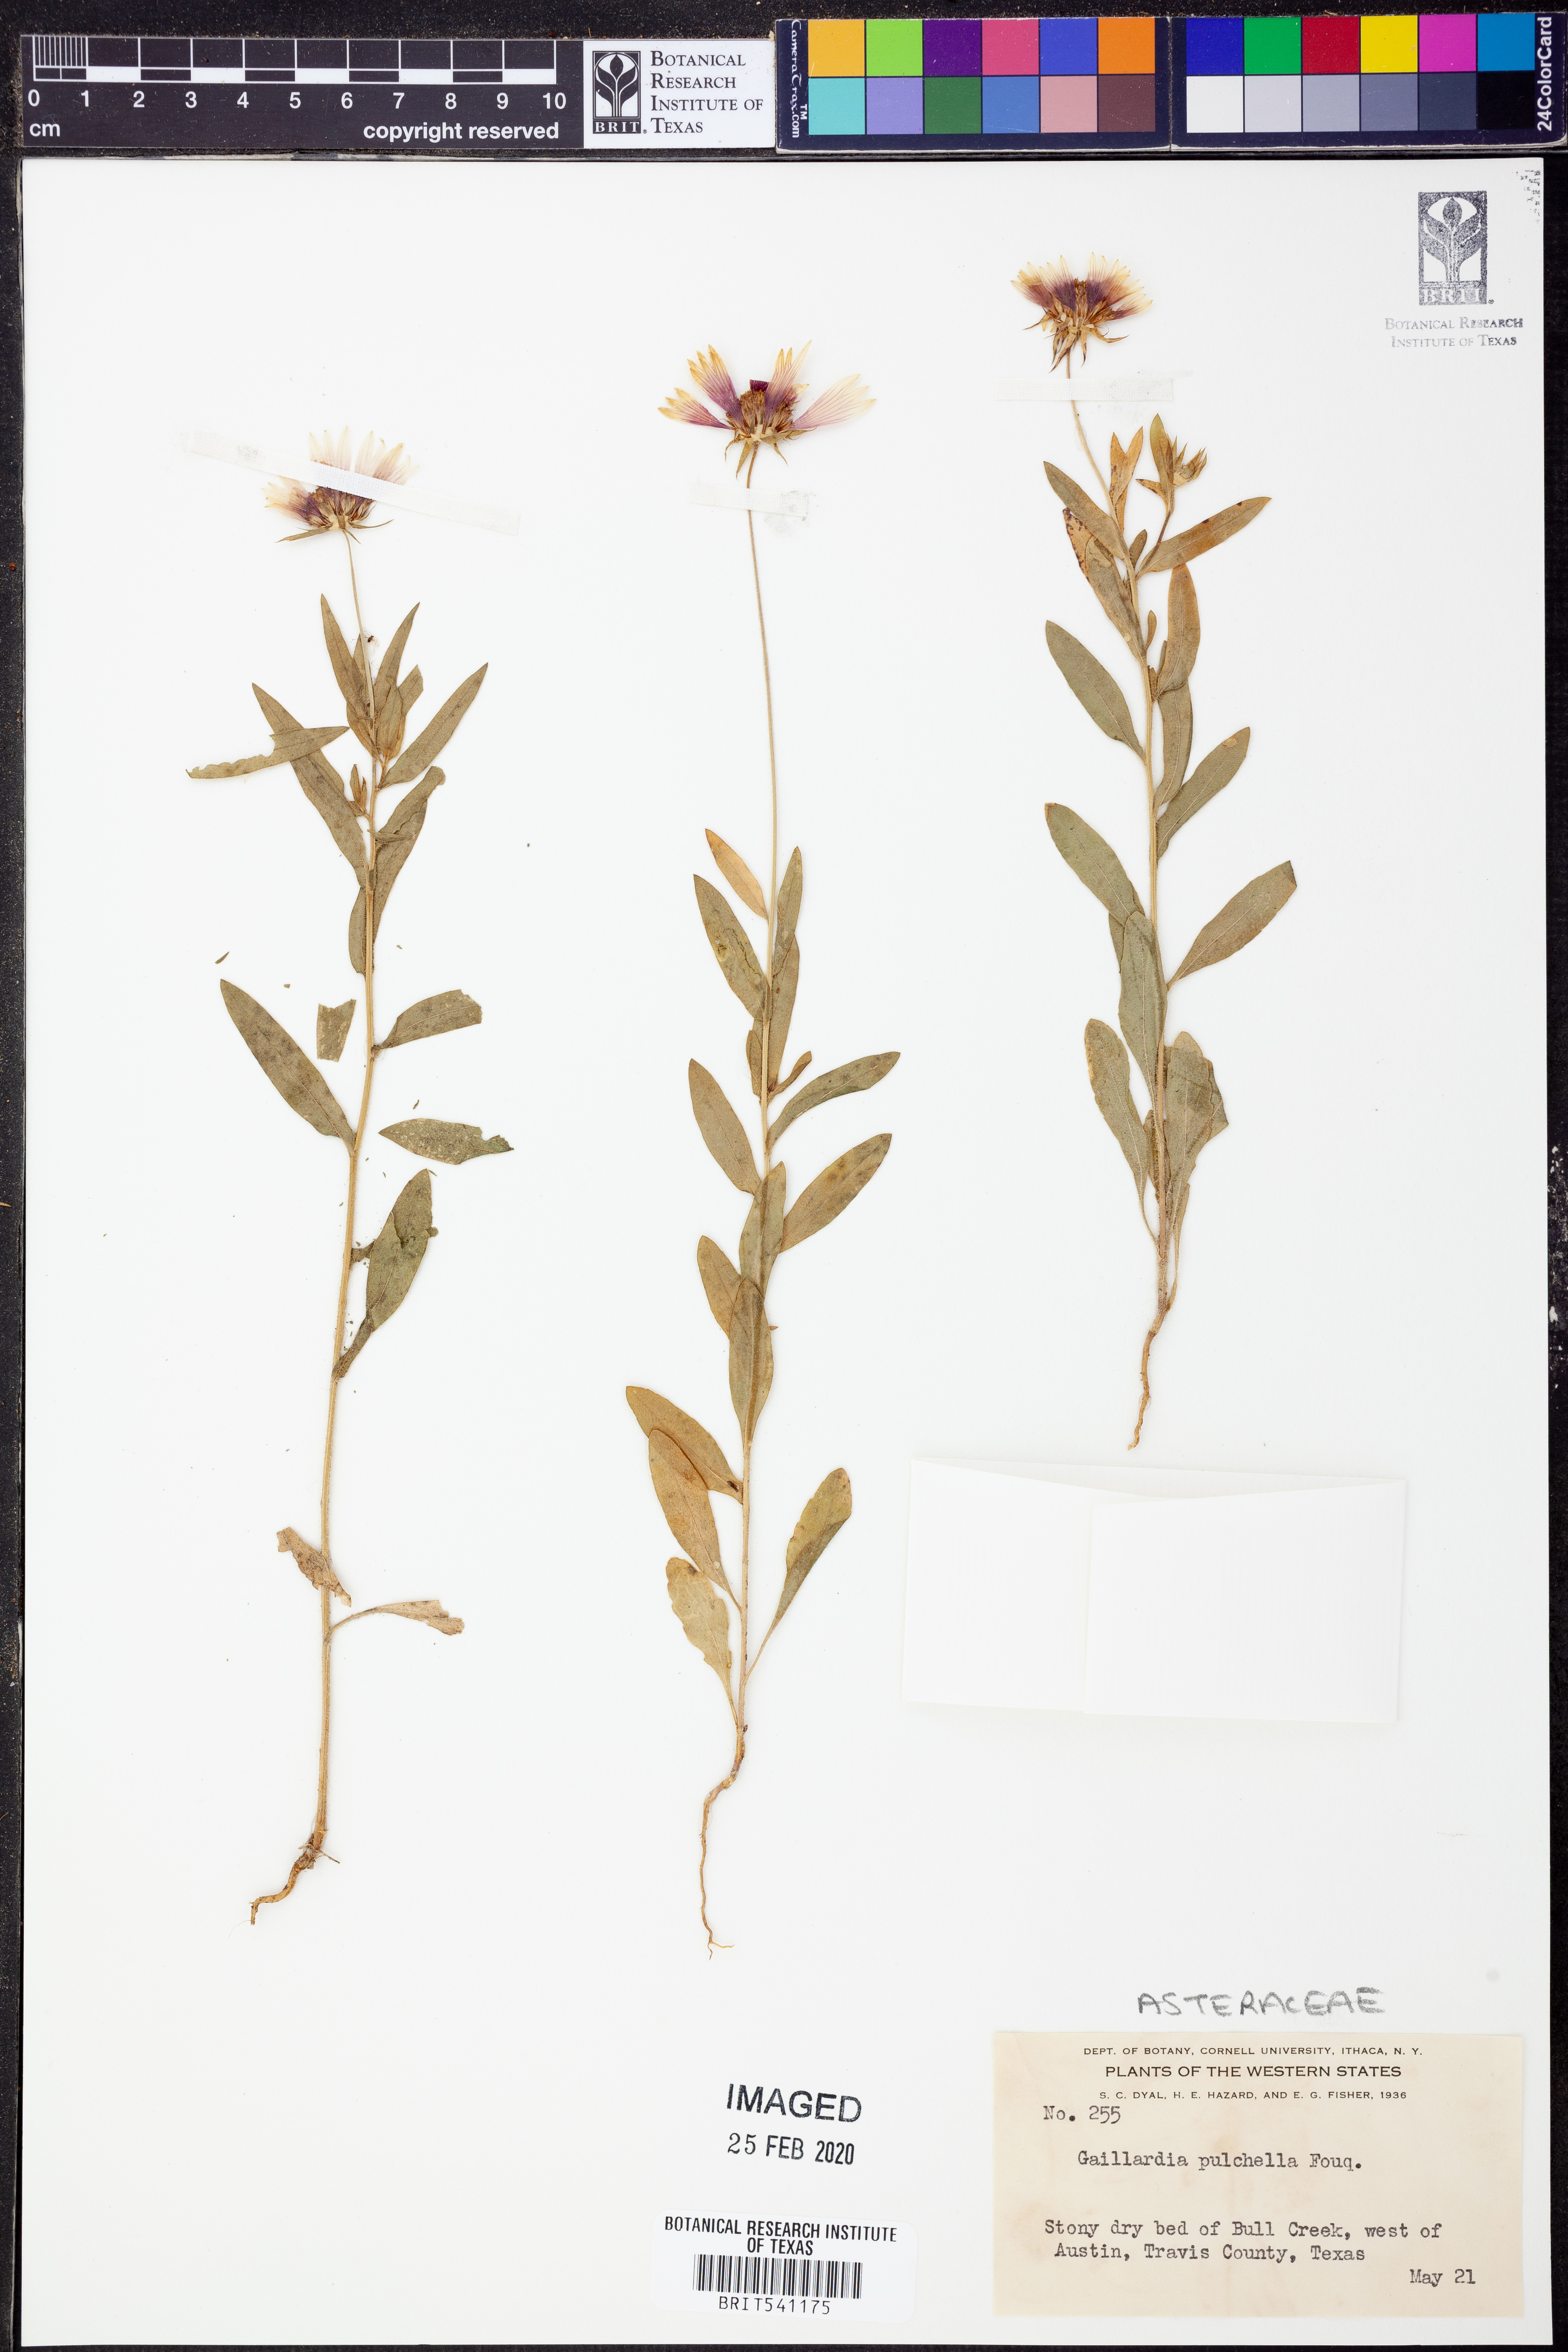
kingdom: Plantae
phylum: Tracheophyta
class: Magnoliopsida
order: Asterales
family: Asteraceae
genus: Gaillardia
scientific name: Gaillardia pulchella
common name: Firewheel
